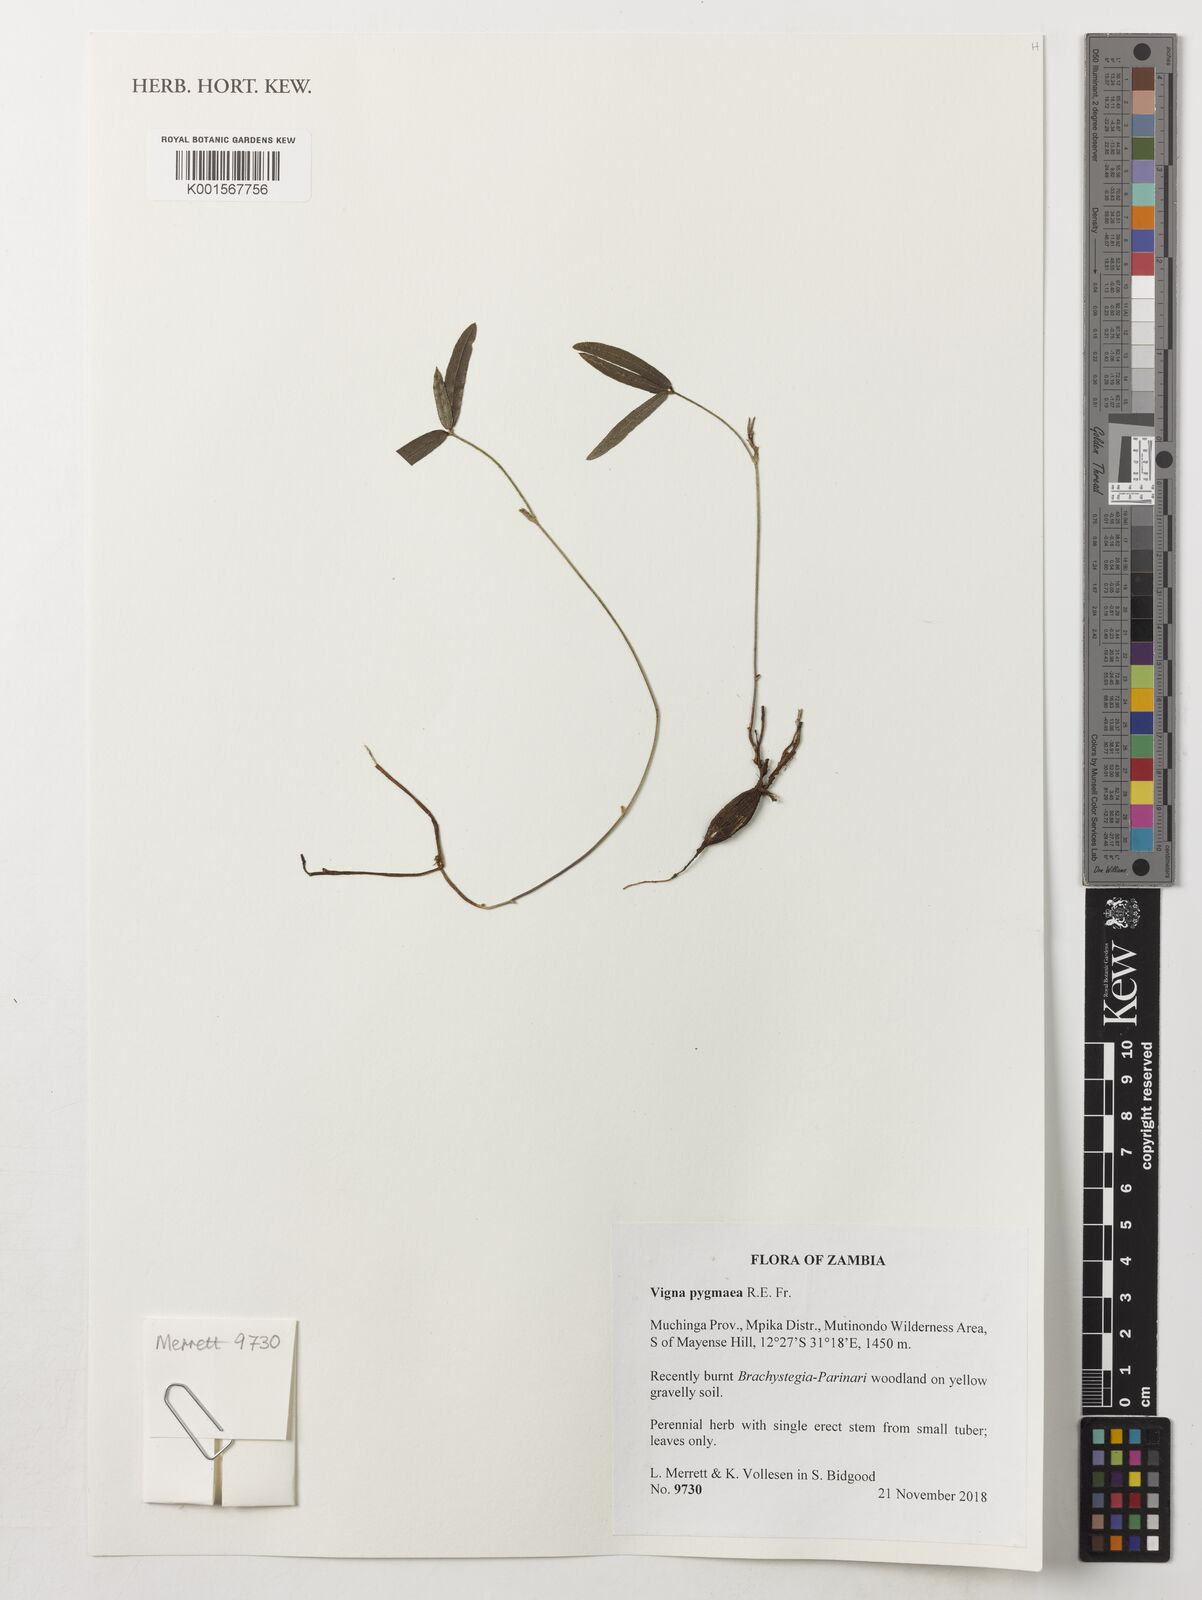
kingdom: Plantae
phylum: Tracheophyta
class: Magnoliopsida
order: Fabales
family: Fabaceae
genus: Vigna
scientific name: Vigna pygmaea
